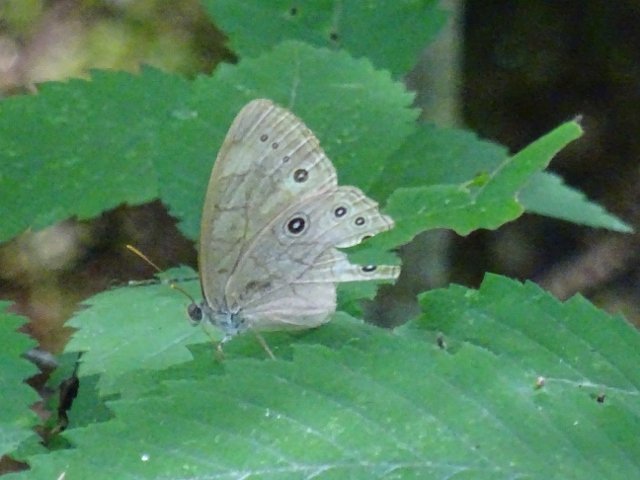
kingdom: Animalia
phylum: Arthropoda
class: Insecta
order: Lepidoptera
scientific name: Lepidoptera
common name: Butterflies
